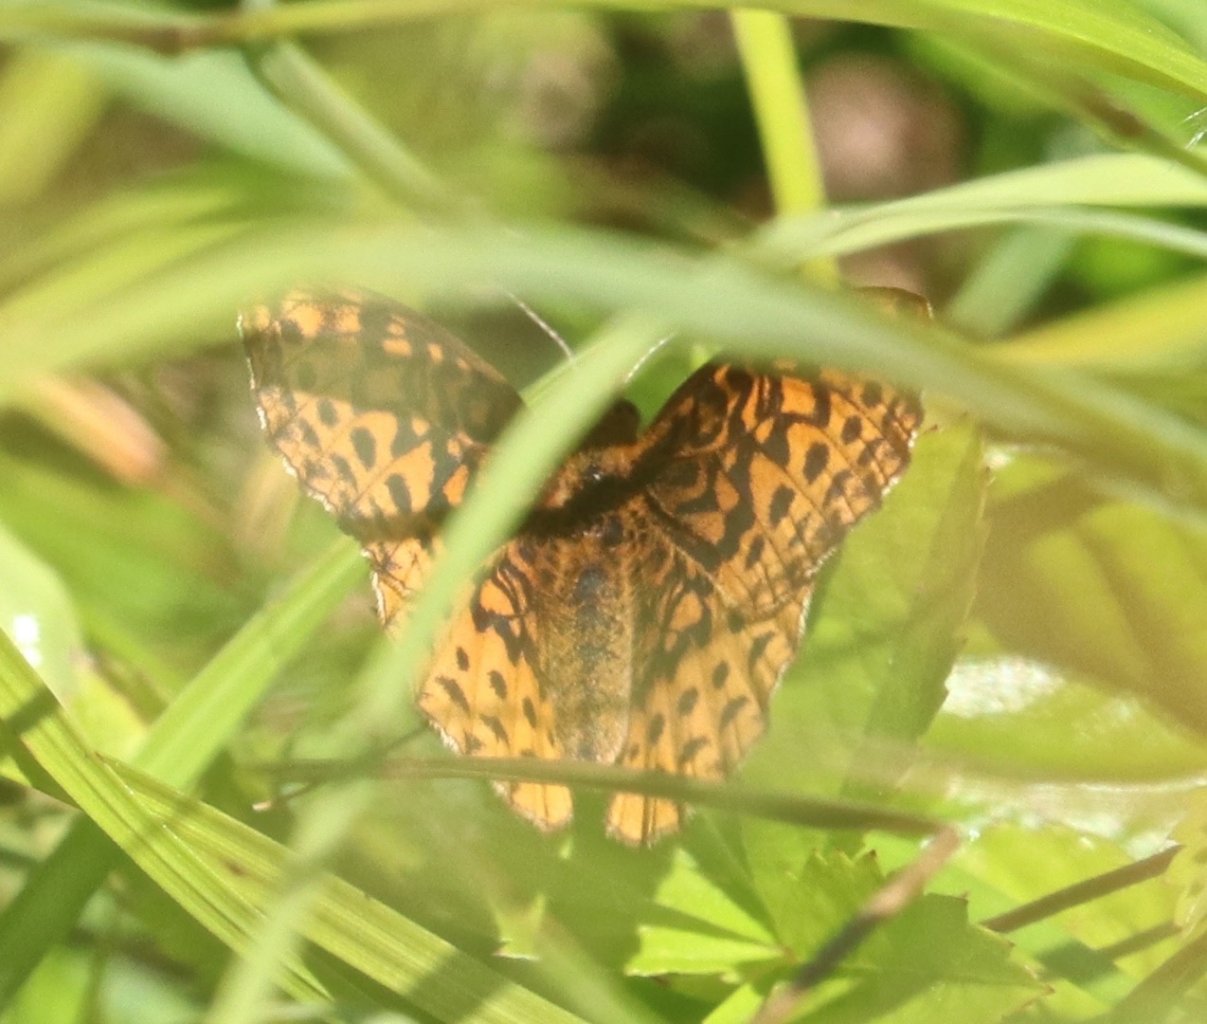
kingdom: Animalia
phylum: Arthropoda
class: Insecta
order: Lepidoptera
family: Nymphalidae
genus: Clossiana
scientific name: Clossiana toddi
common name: Meadow Fritillary
